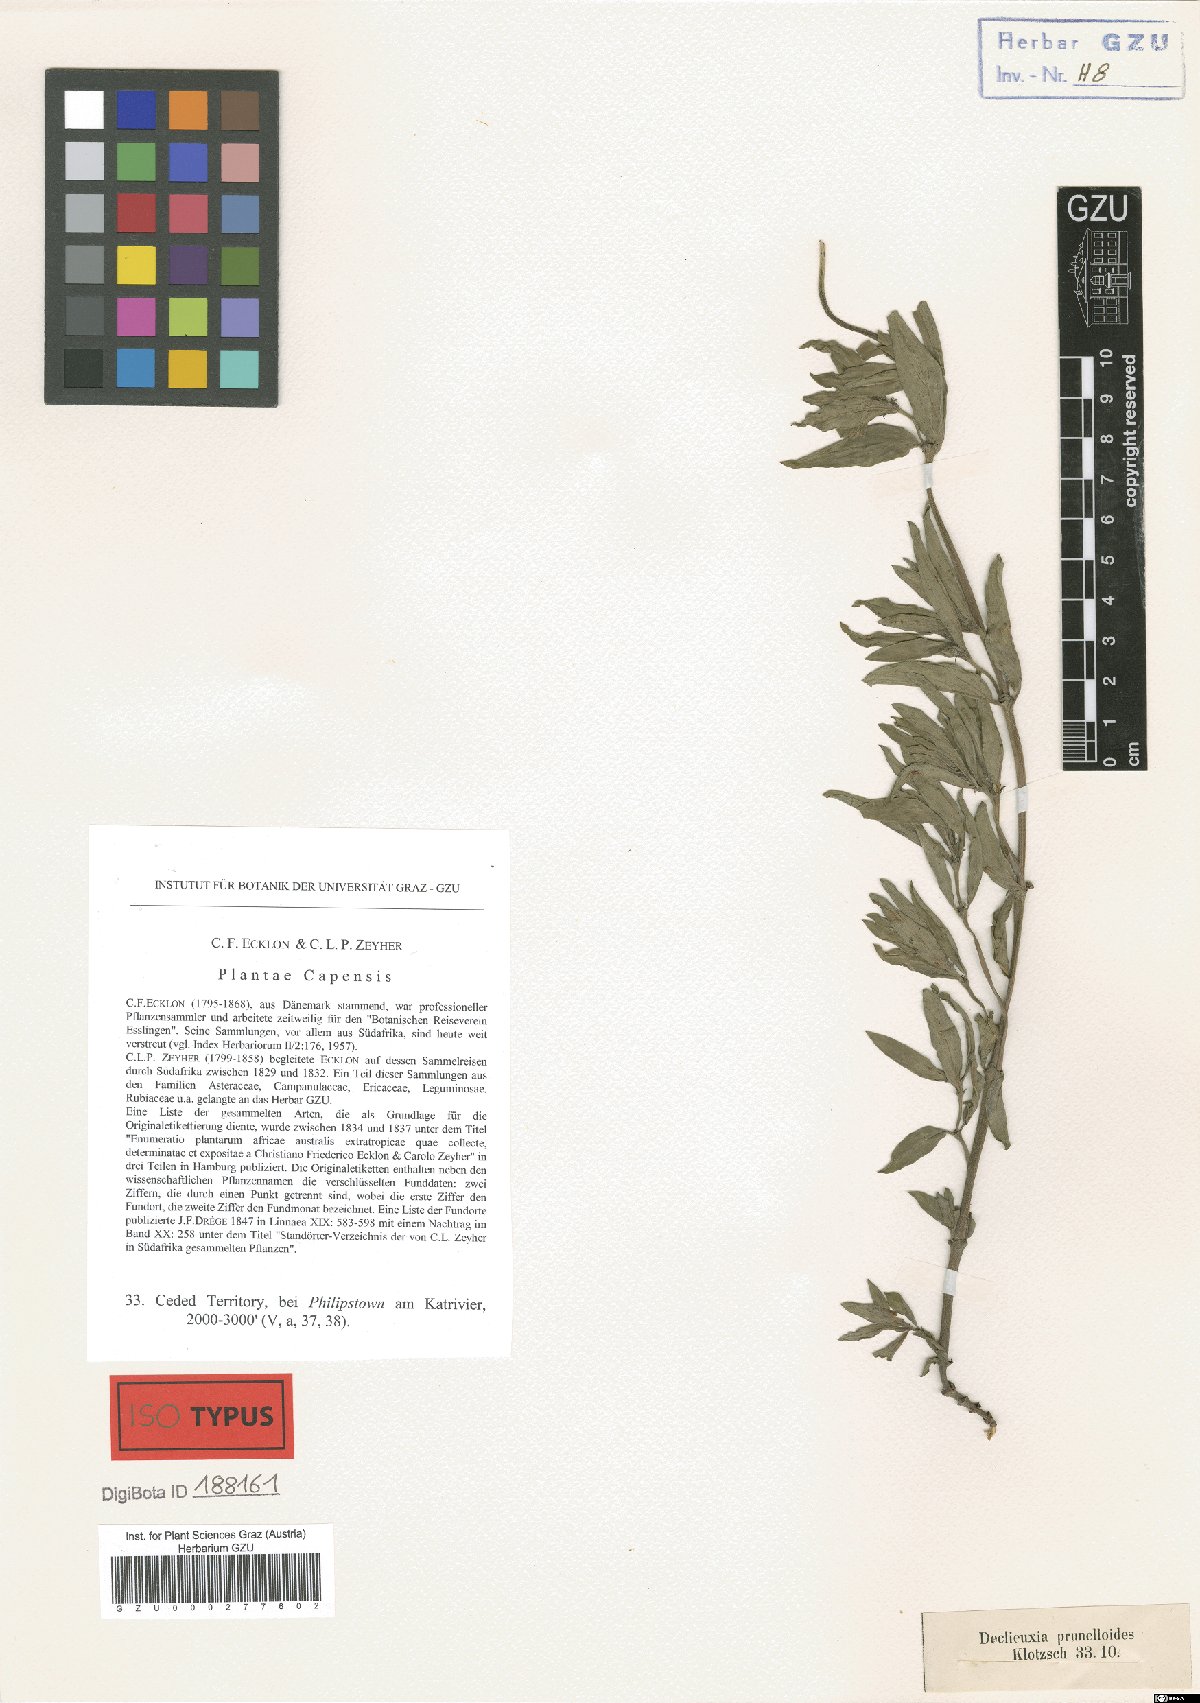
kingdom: Plantae
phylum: Tracheophyta
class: Magnoliopsida
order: Gentianales
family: Rubiaceae
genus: Pentanisia
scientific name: Pentanisia prunelloides
